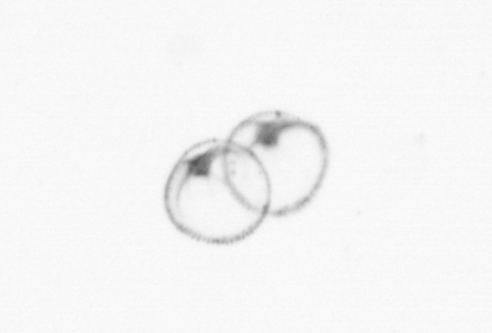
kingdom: Chromista
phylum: Myzozoa
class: Dinophyceae
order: Noctilucales
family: Noctilucaceae
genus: Noctiluca
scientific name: Noctiluca scintillans
